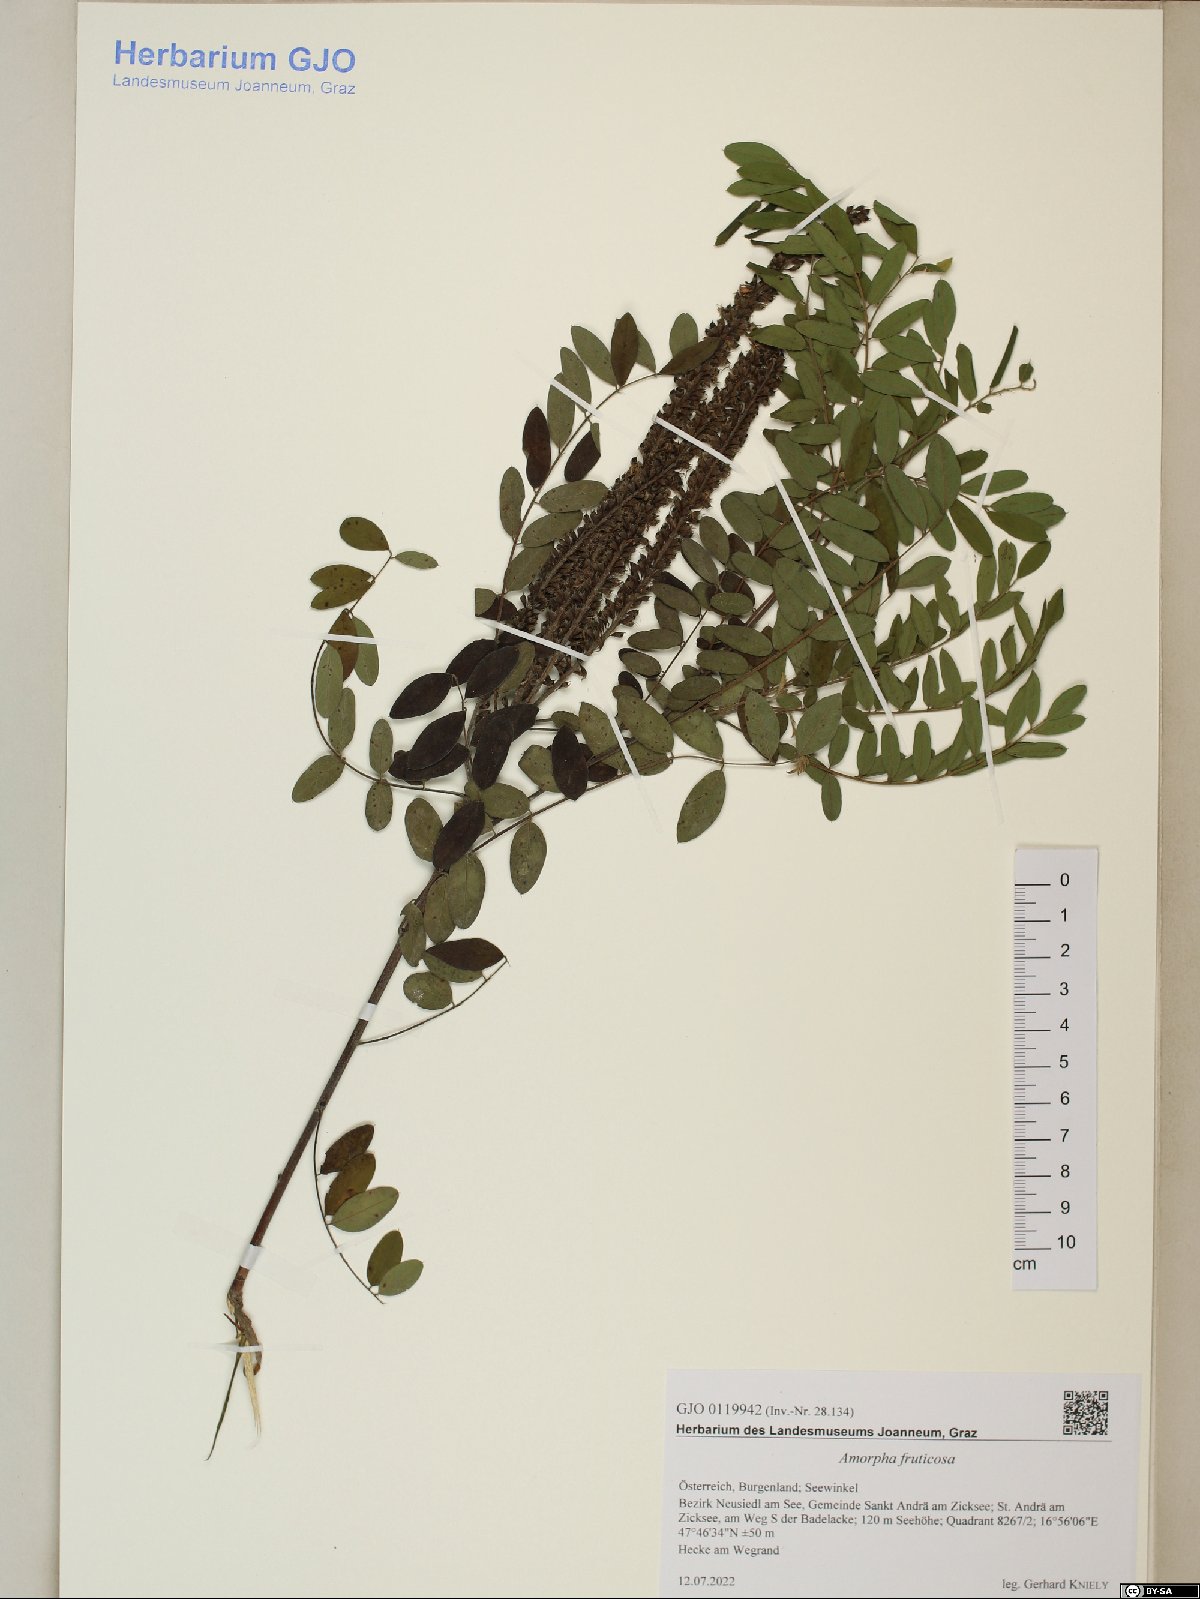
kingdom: Plantae
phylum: Tracheophyta
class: Magnoliopsida
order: Fabales
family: Fabaceae
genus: Amorpha
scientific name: Amorpha fruticosa
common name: False indigo
